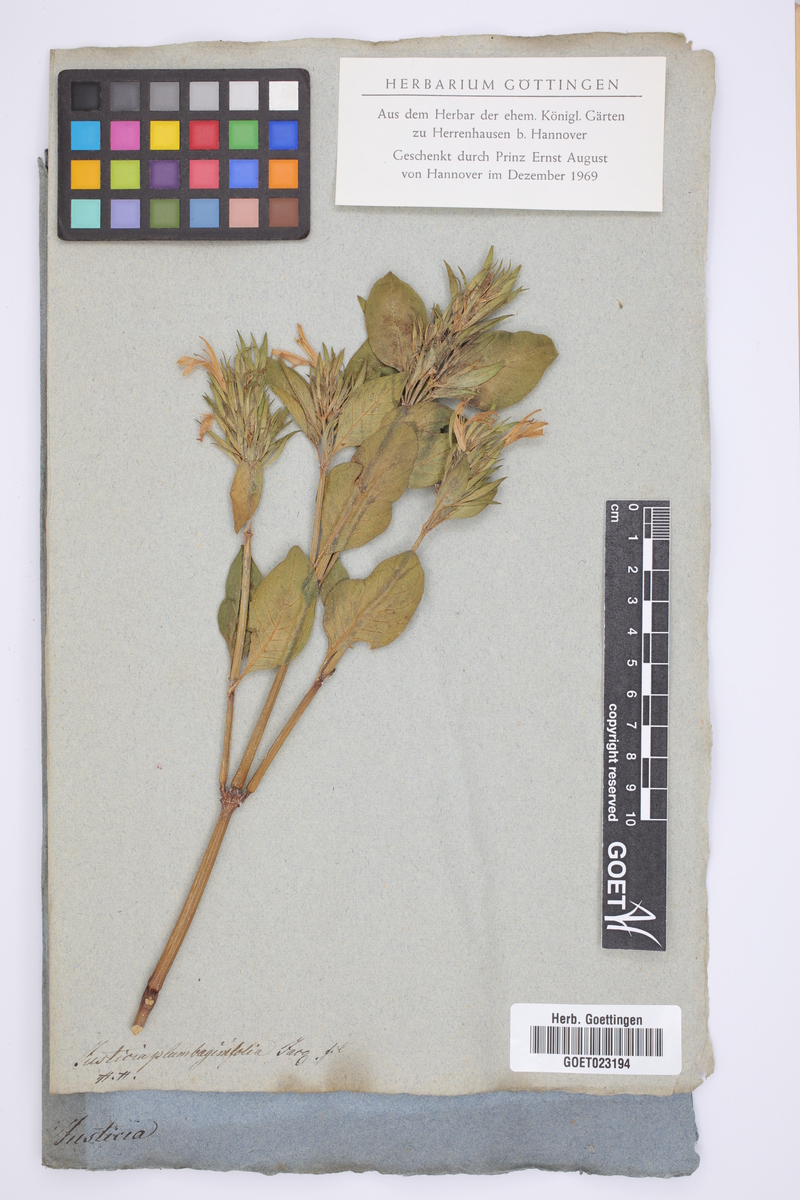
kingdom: Plantae
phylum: Tracheophyta
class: Magnoliopsida
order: Lamiales
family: Acanthaceae
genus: Justicia
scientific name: Justicia plumbaginifolia
